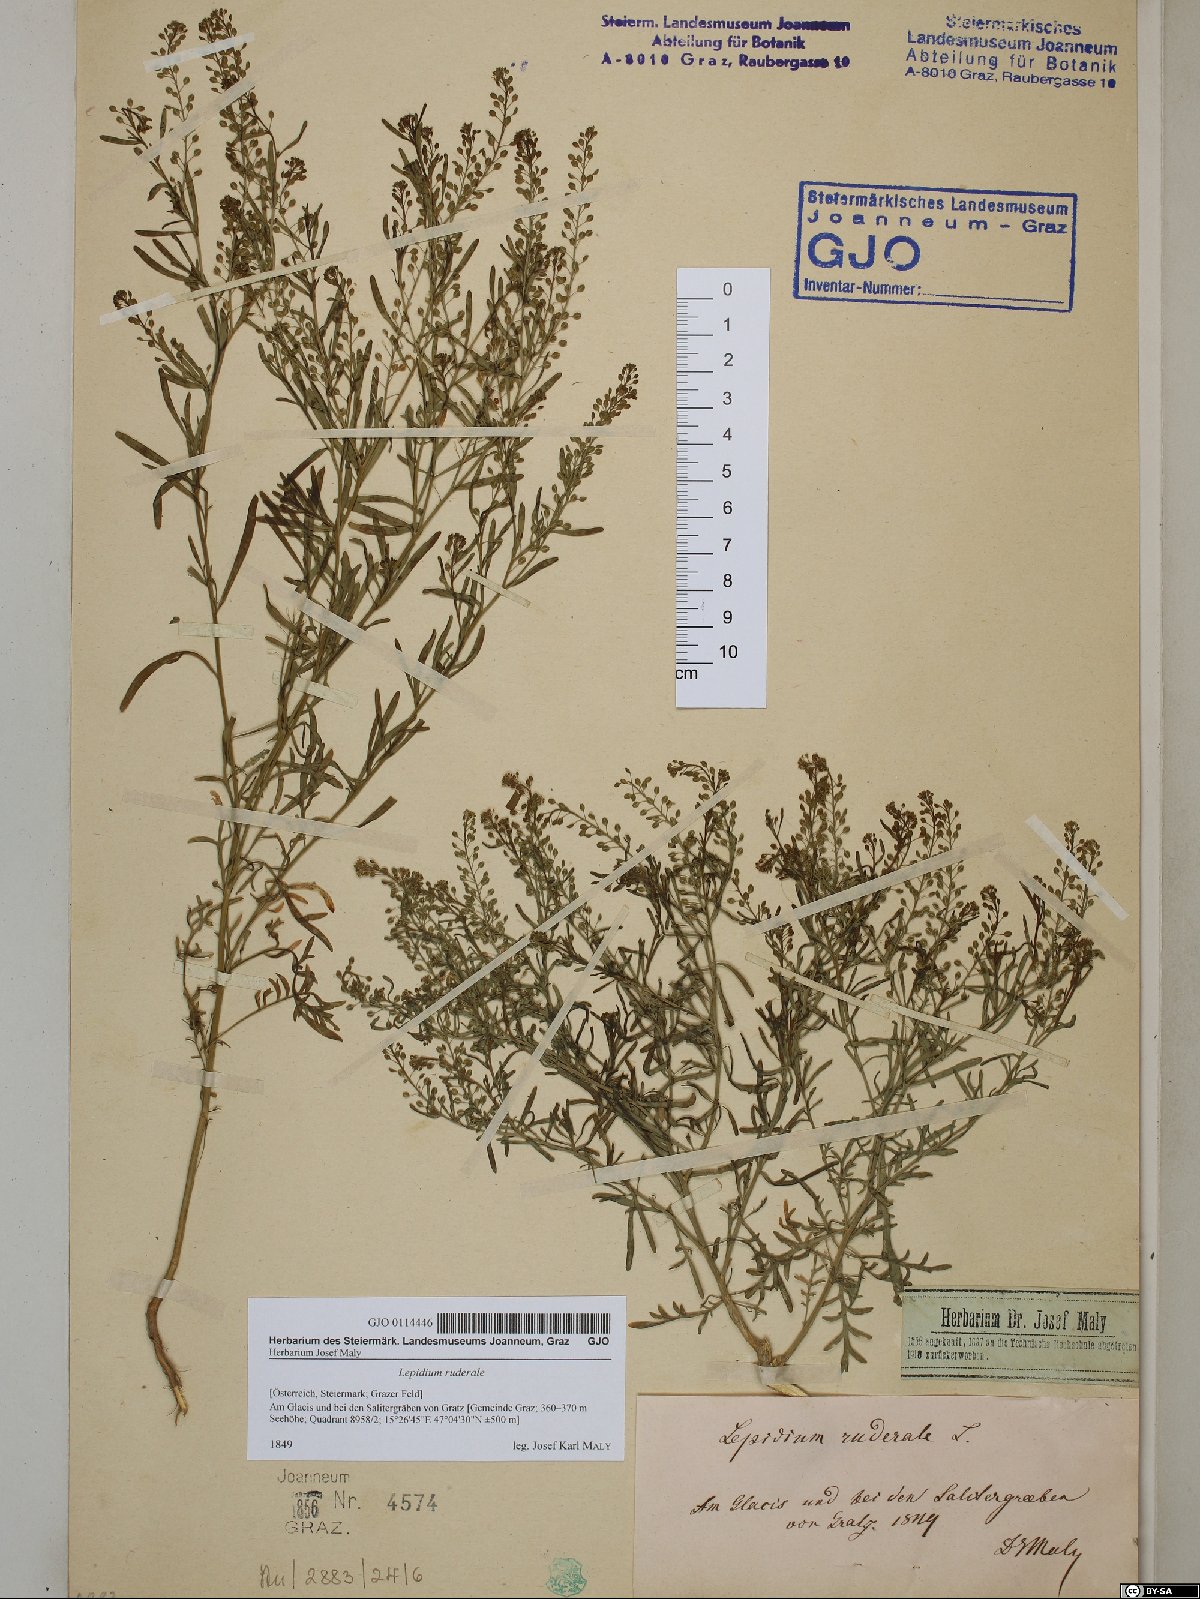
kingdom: Plantae
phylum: Tracheophyta
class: Magnoliopsida
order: Brassicales
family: Brassicaceae
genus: Lepidium
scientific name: Lepidium ruderale
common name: Narrow-leaved pepperwort
